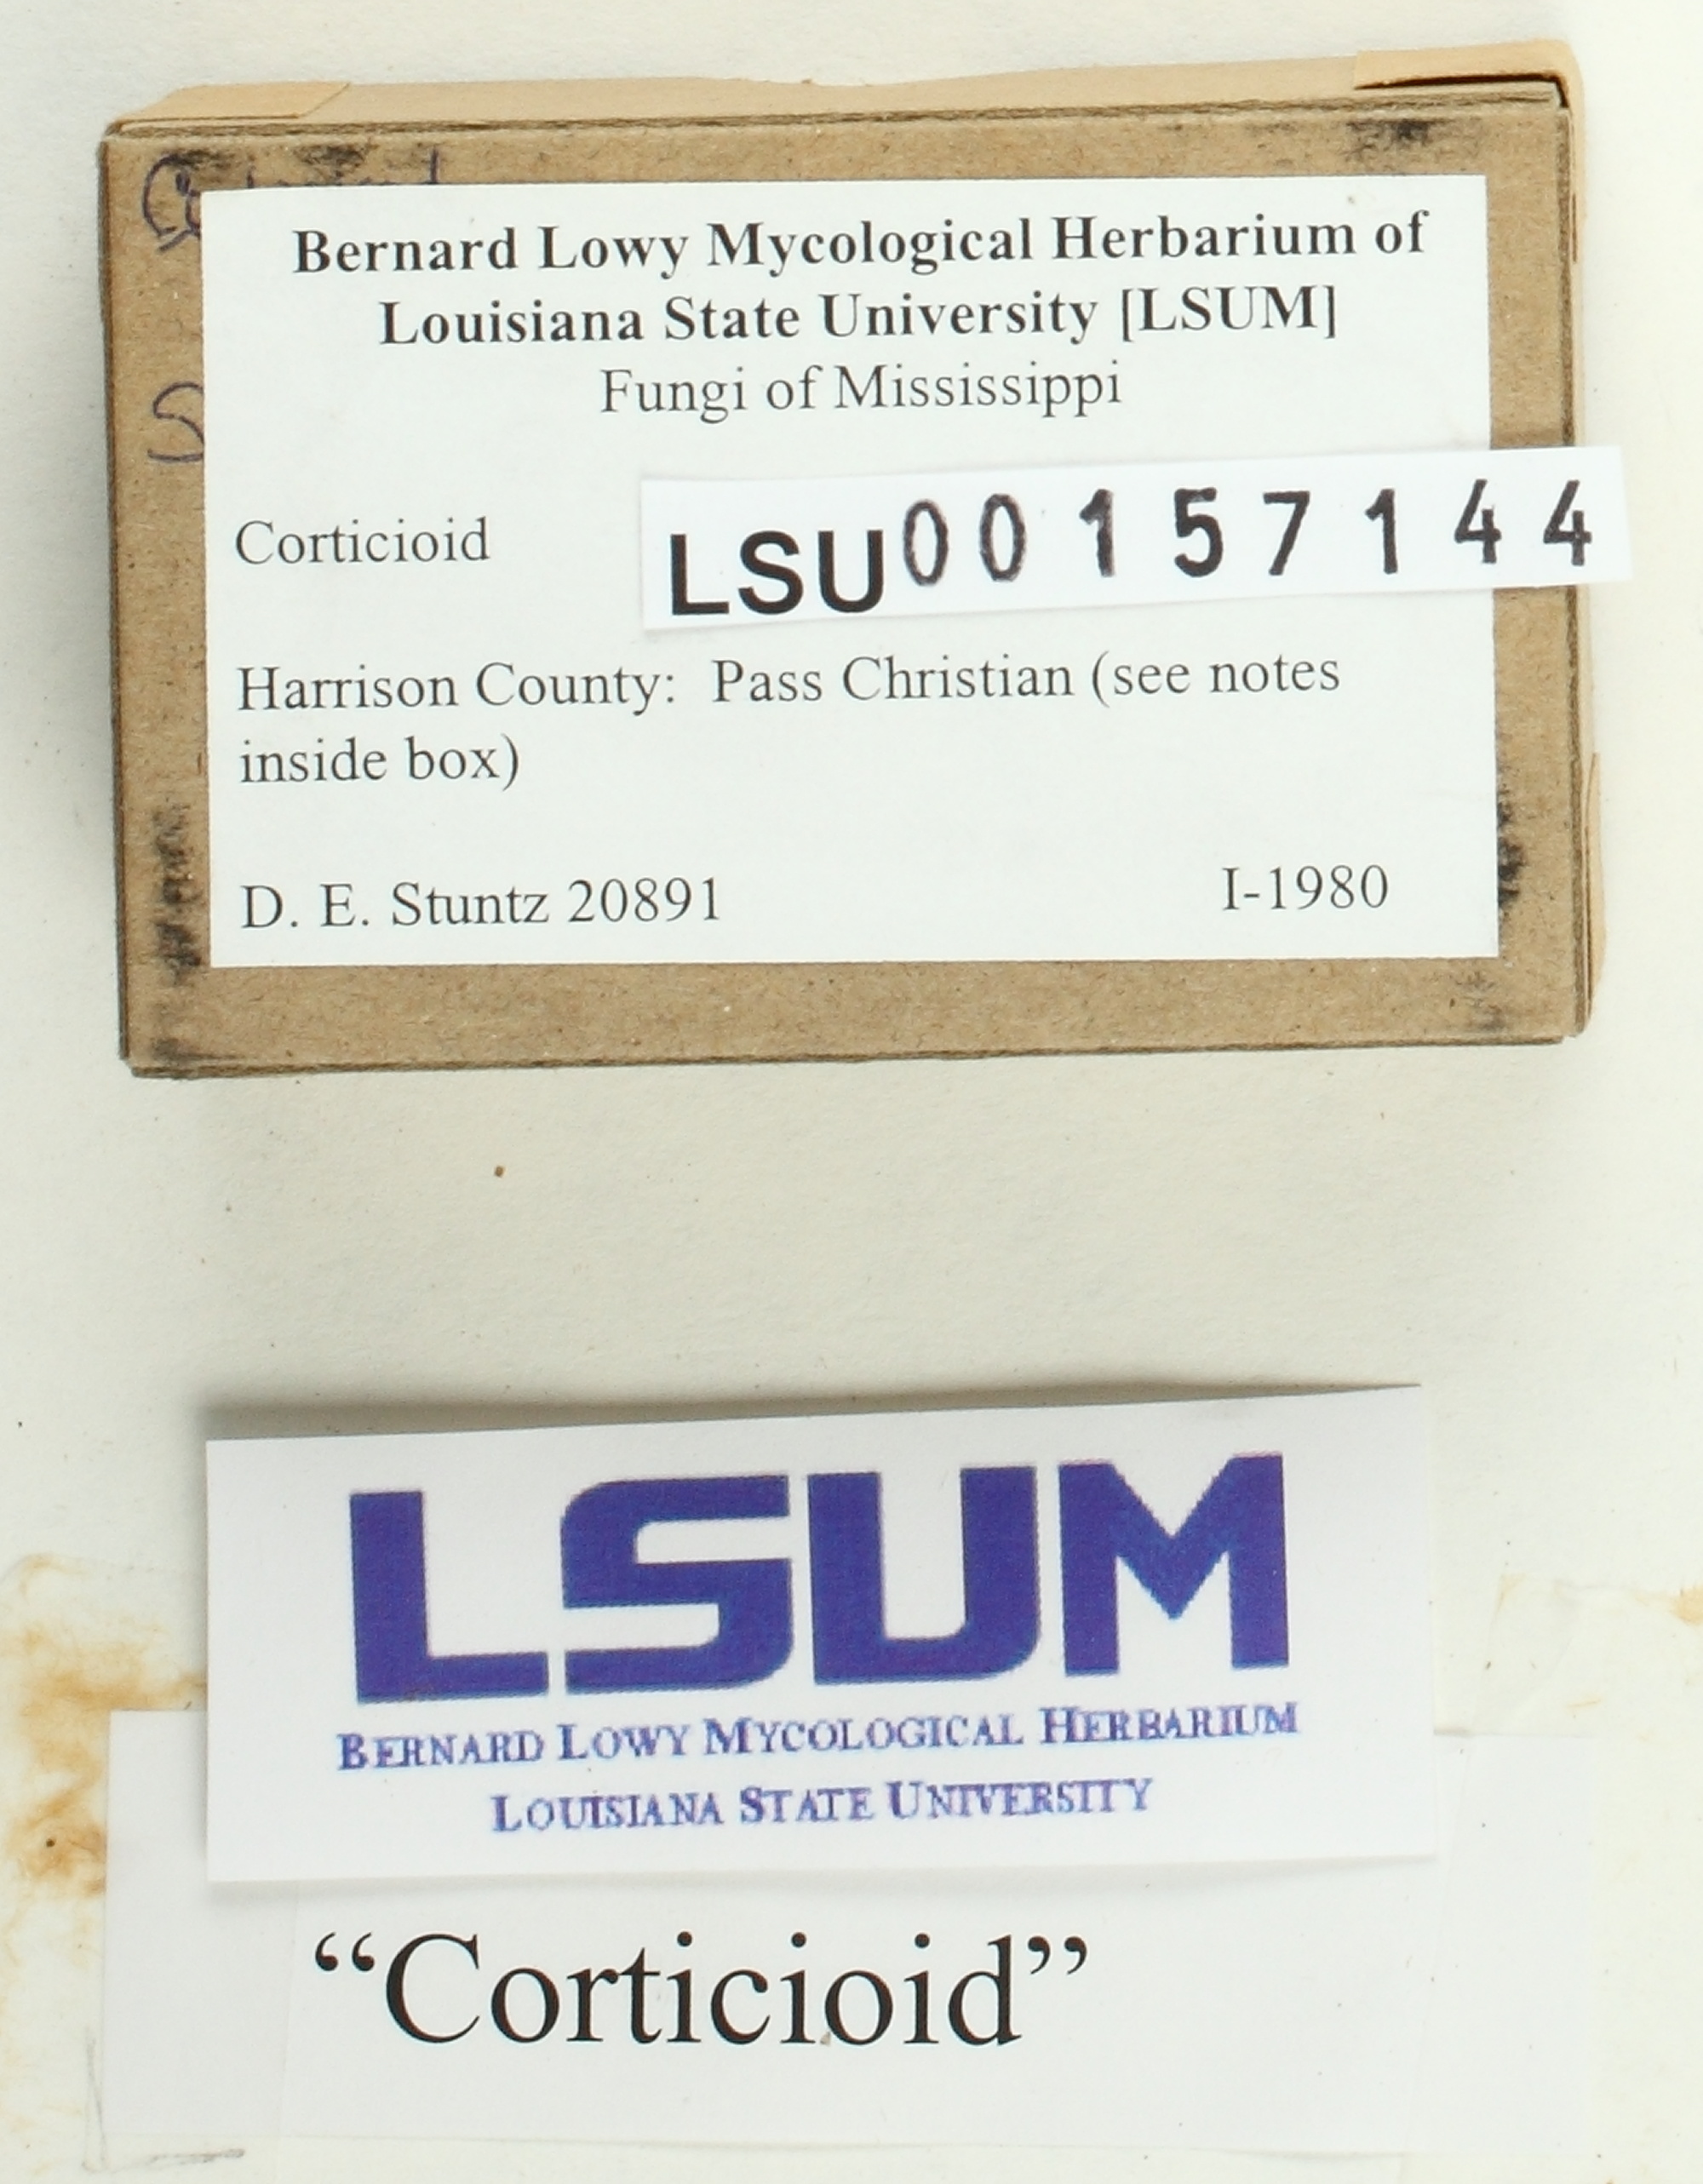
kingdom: Fungi
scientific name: Fungi
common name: Fungi
